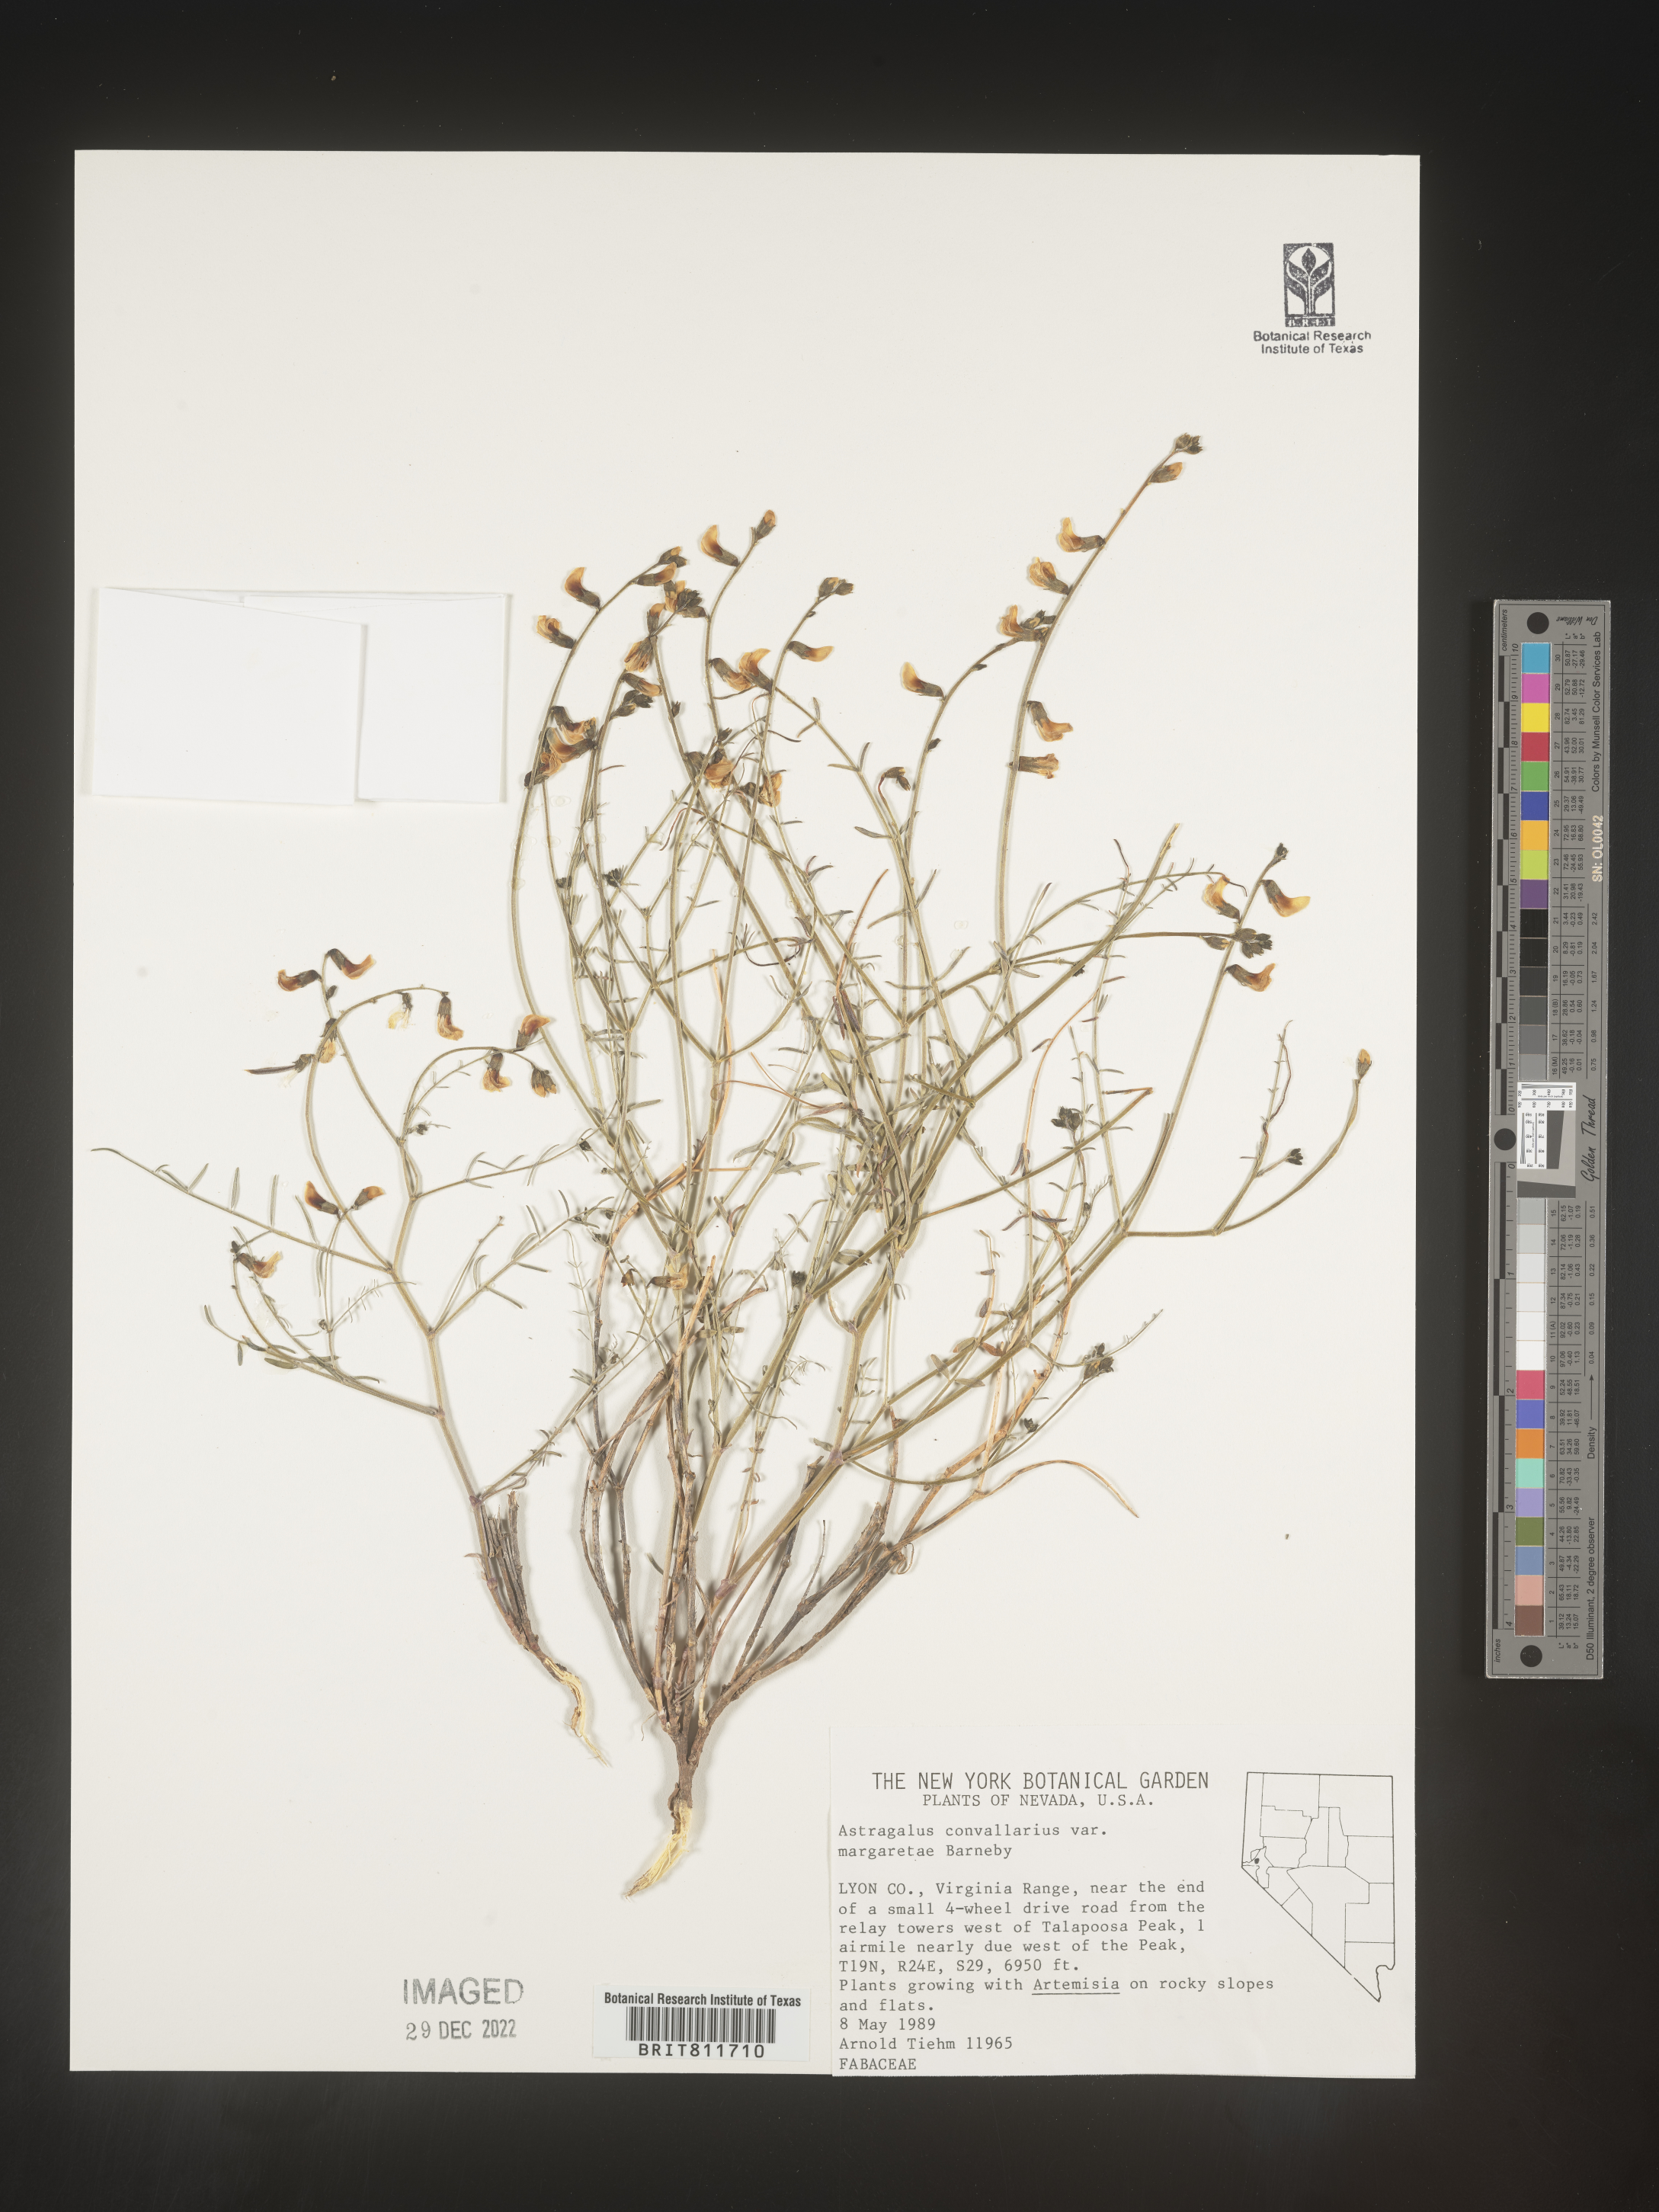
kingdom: Plantae
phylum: Tracheophyta
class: Magnoliopsida
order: Fabales
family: Fabaceae
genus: Astragalus
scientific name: Astragalus convallarius
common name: Lesser rushy milk-vetch
